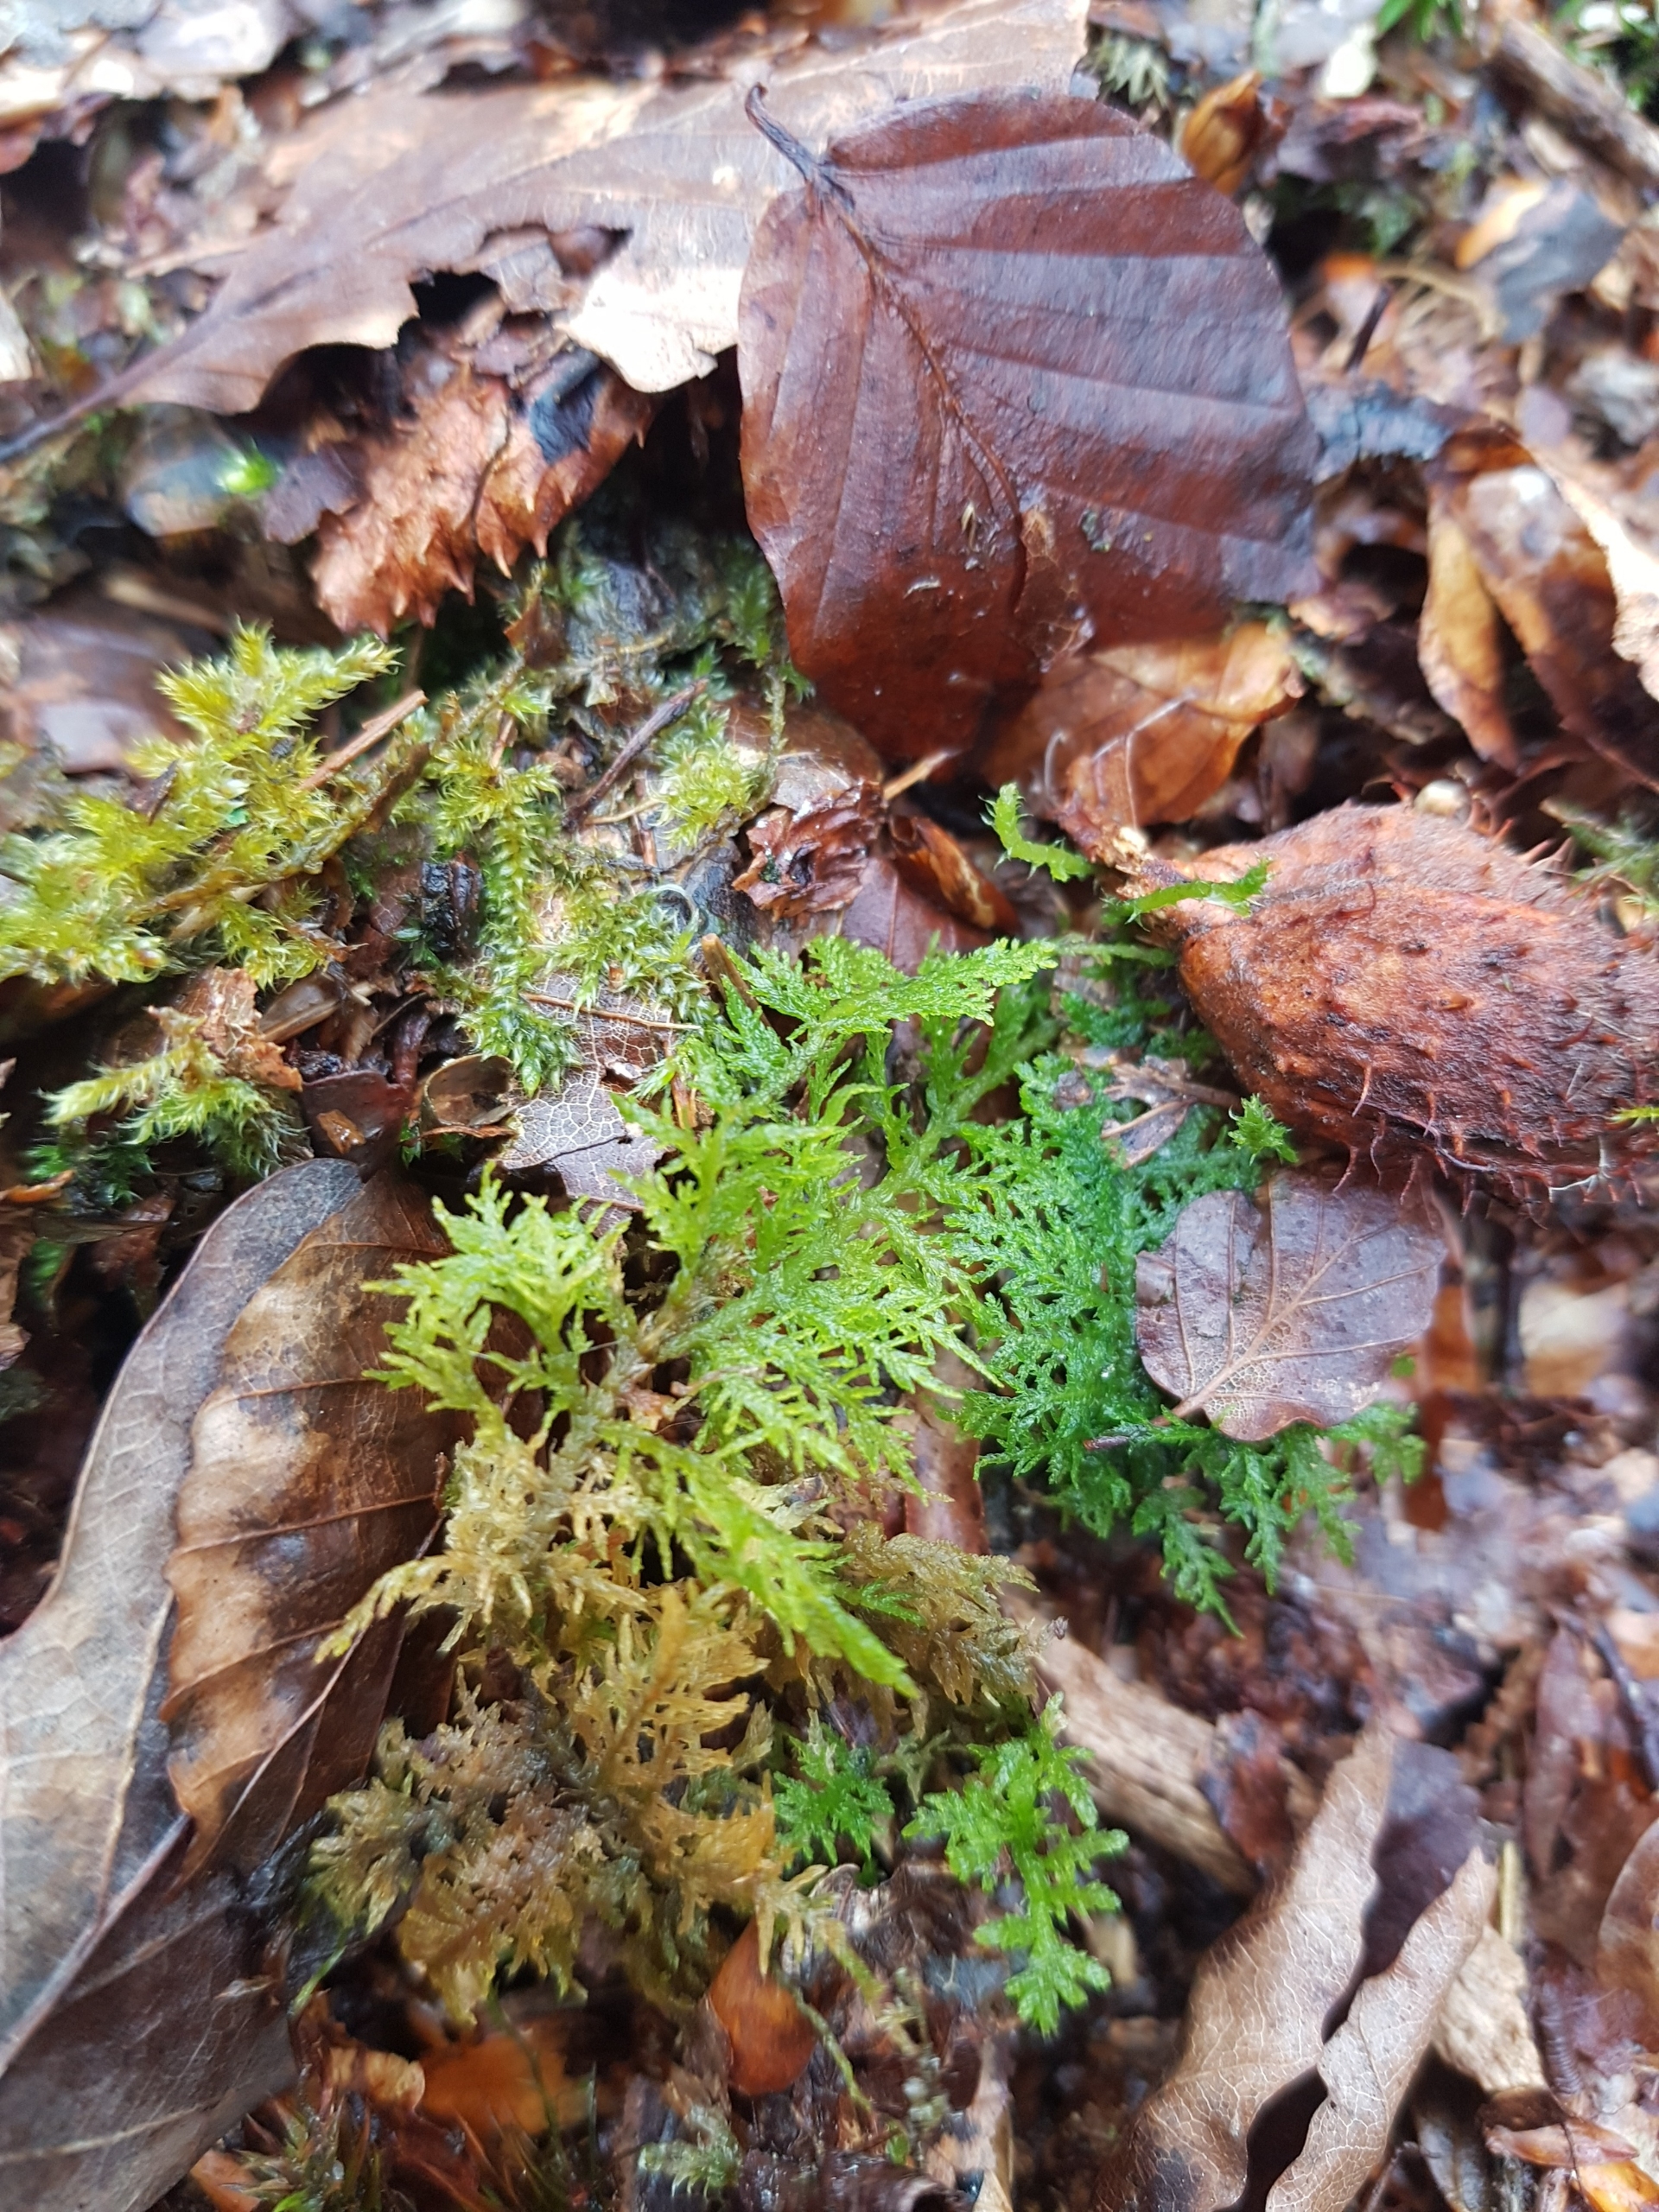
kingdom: Plantae
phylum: Bryophyta
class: Bryopsida
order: Hypnales
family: Thuidiaceae
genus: Thuidium
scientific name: Thuidium
